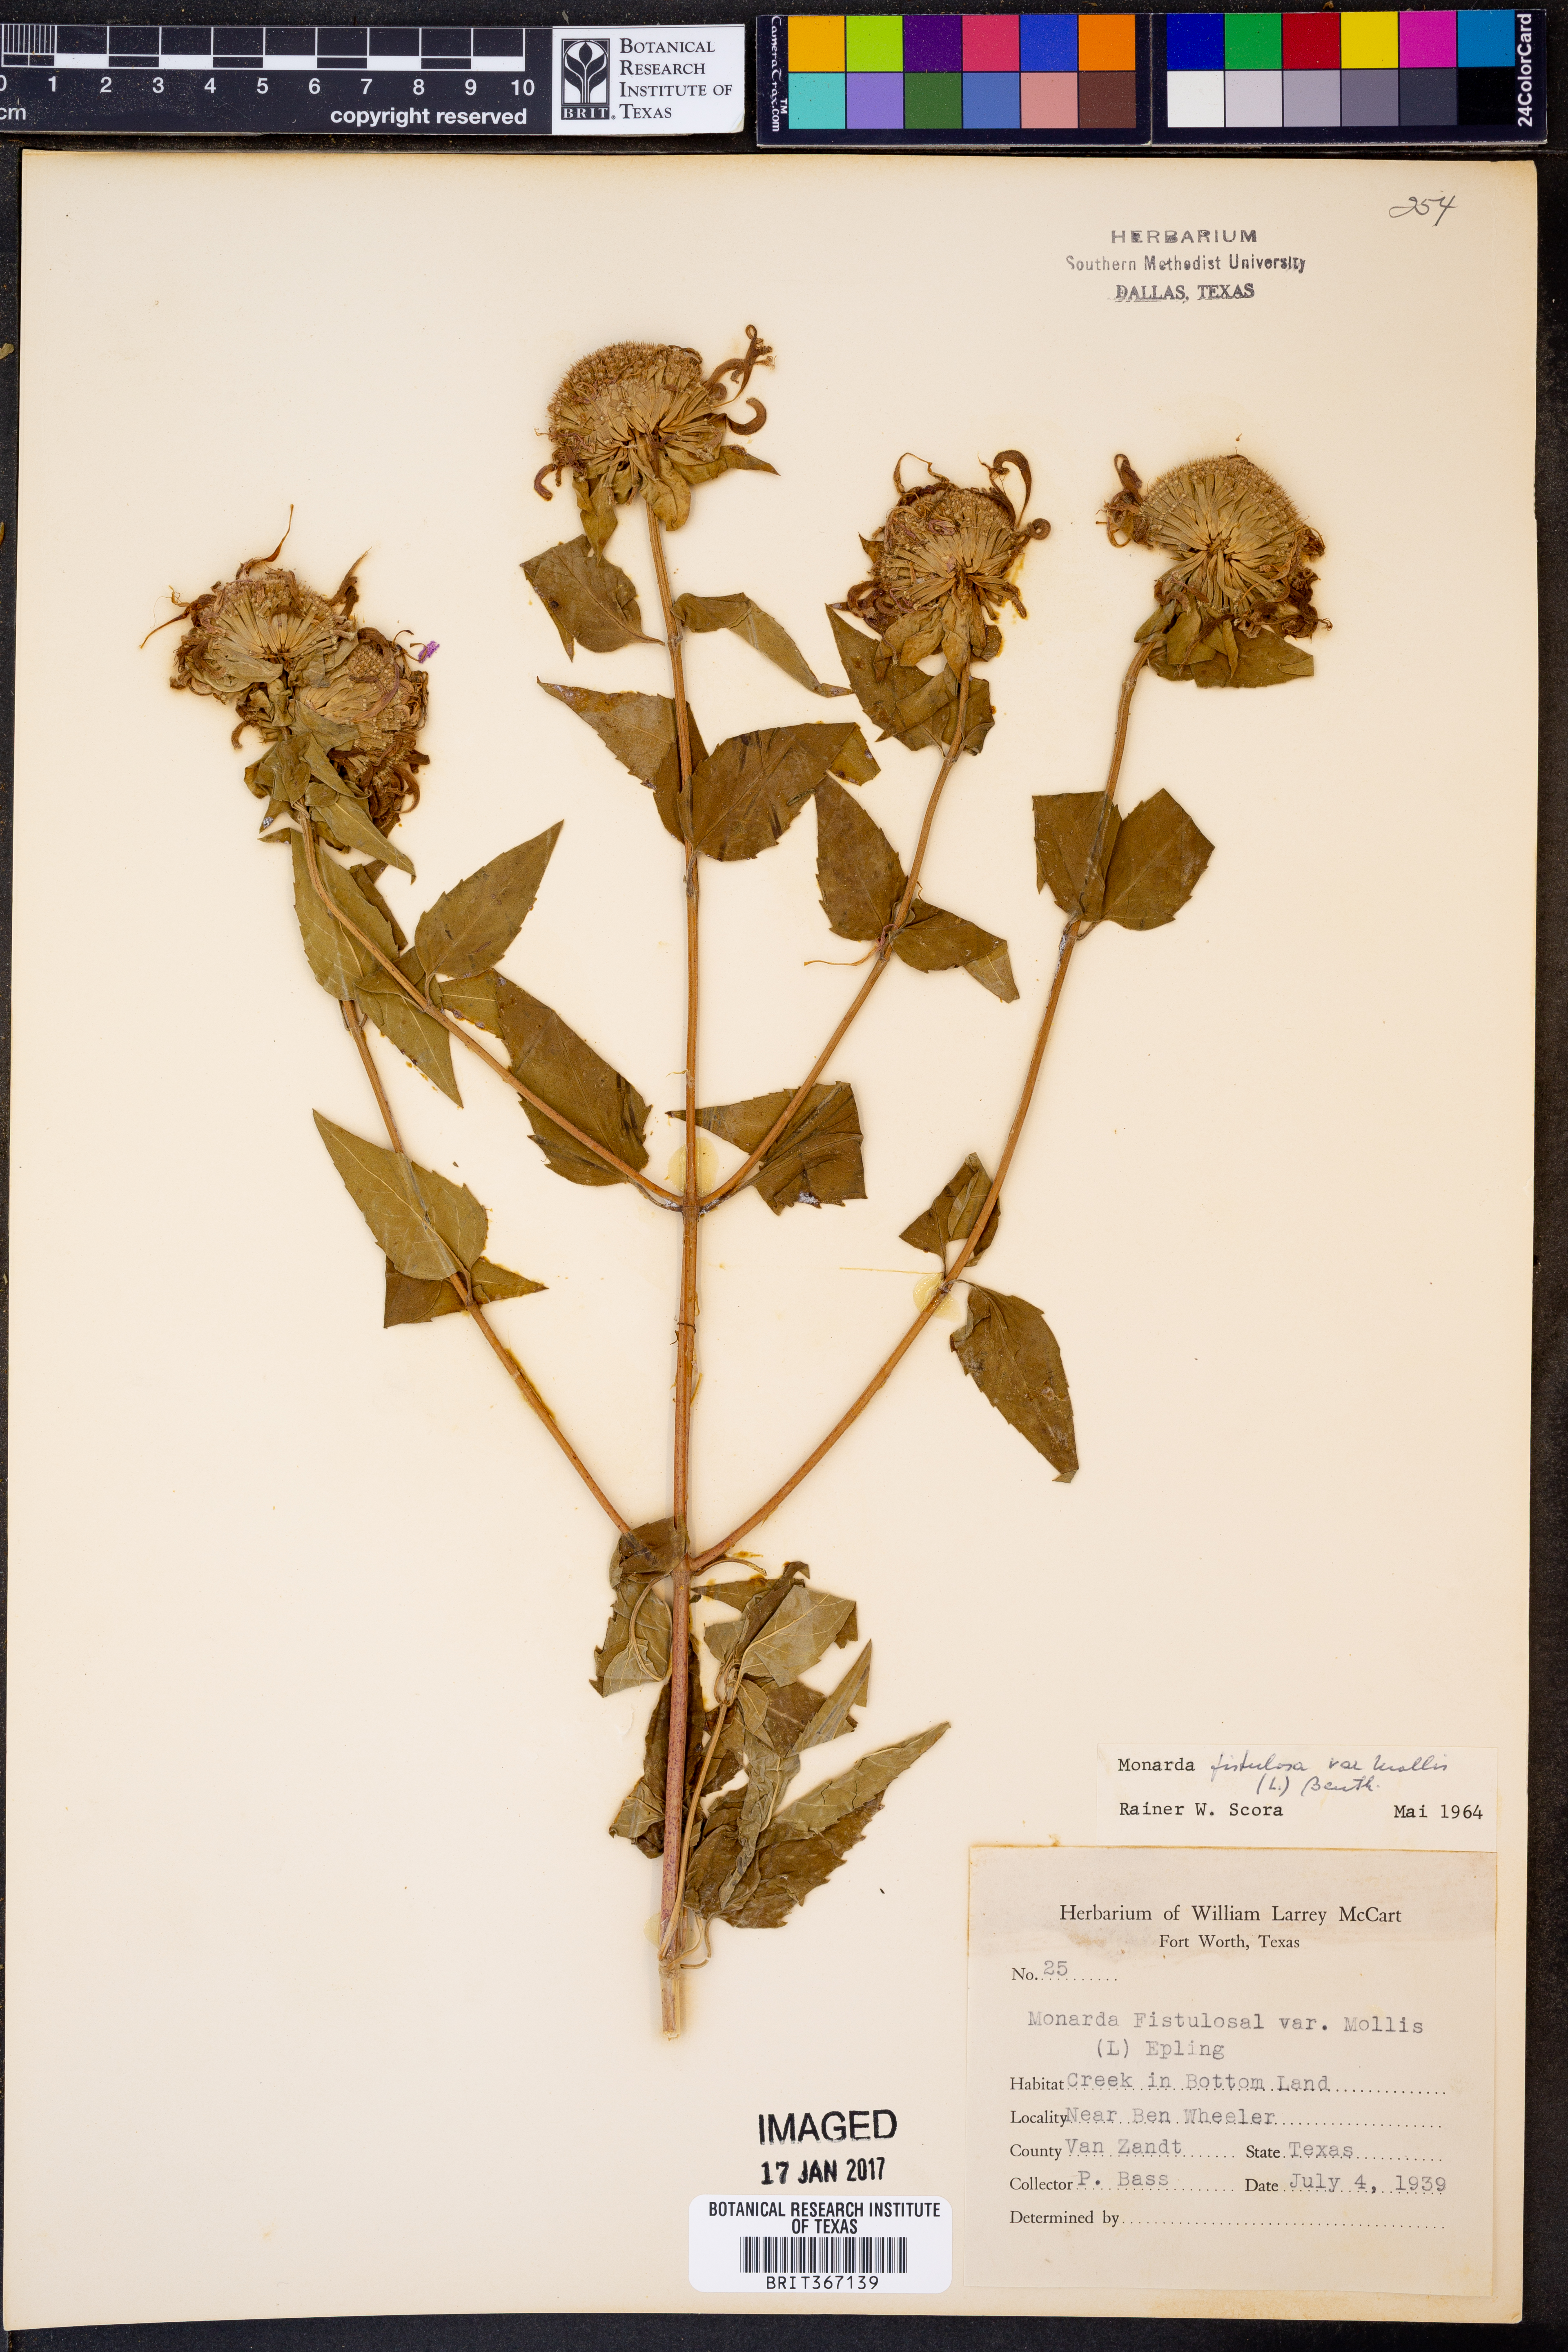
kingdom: Plantae
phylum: Tracheophyta
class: Magnoliopsida
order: Lamiales
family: Lamiaceae
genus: Monarda
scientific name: Monarda fistulosa
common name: Purple beebalm
